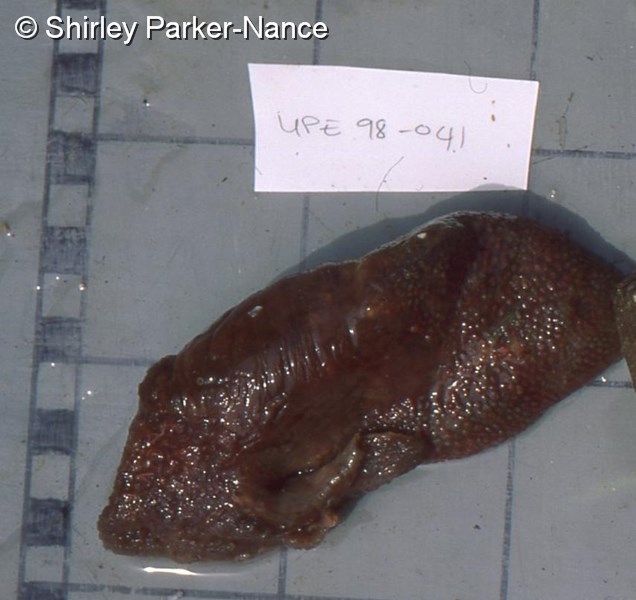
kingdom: Animalia
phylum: Chordata
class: Ascidiacea
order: Stolidobranchia
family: Styelidae
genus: Polycarpa
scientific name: Polycarpa
